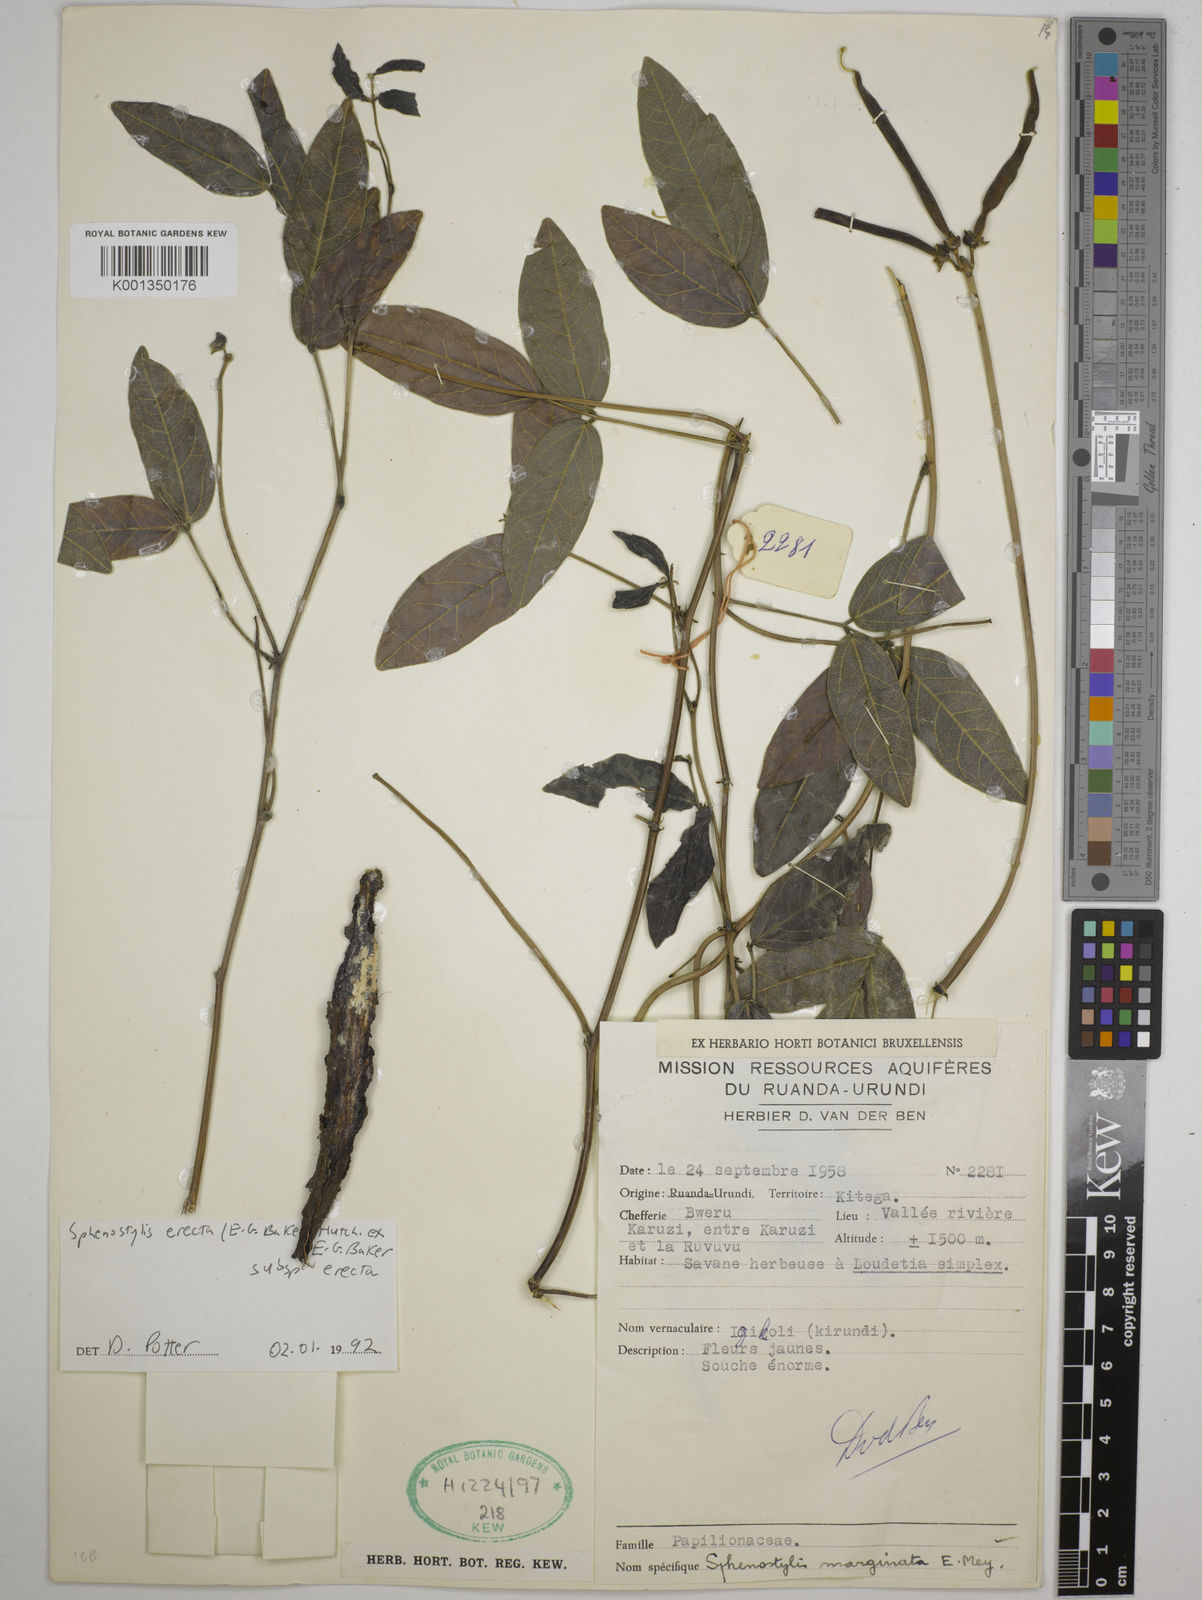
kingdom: Plantae
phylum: Tracheophyta
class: Magnoliopsida
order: Fabales
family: Fabaceae
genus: Sphenostylis
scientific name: Sphenostylis erecta
